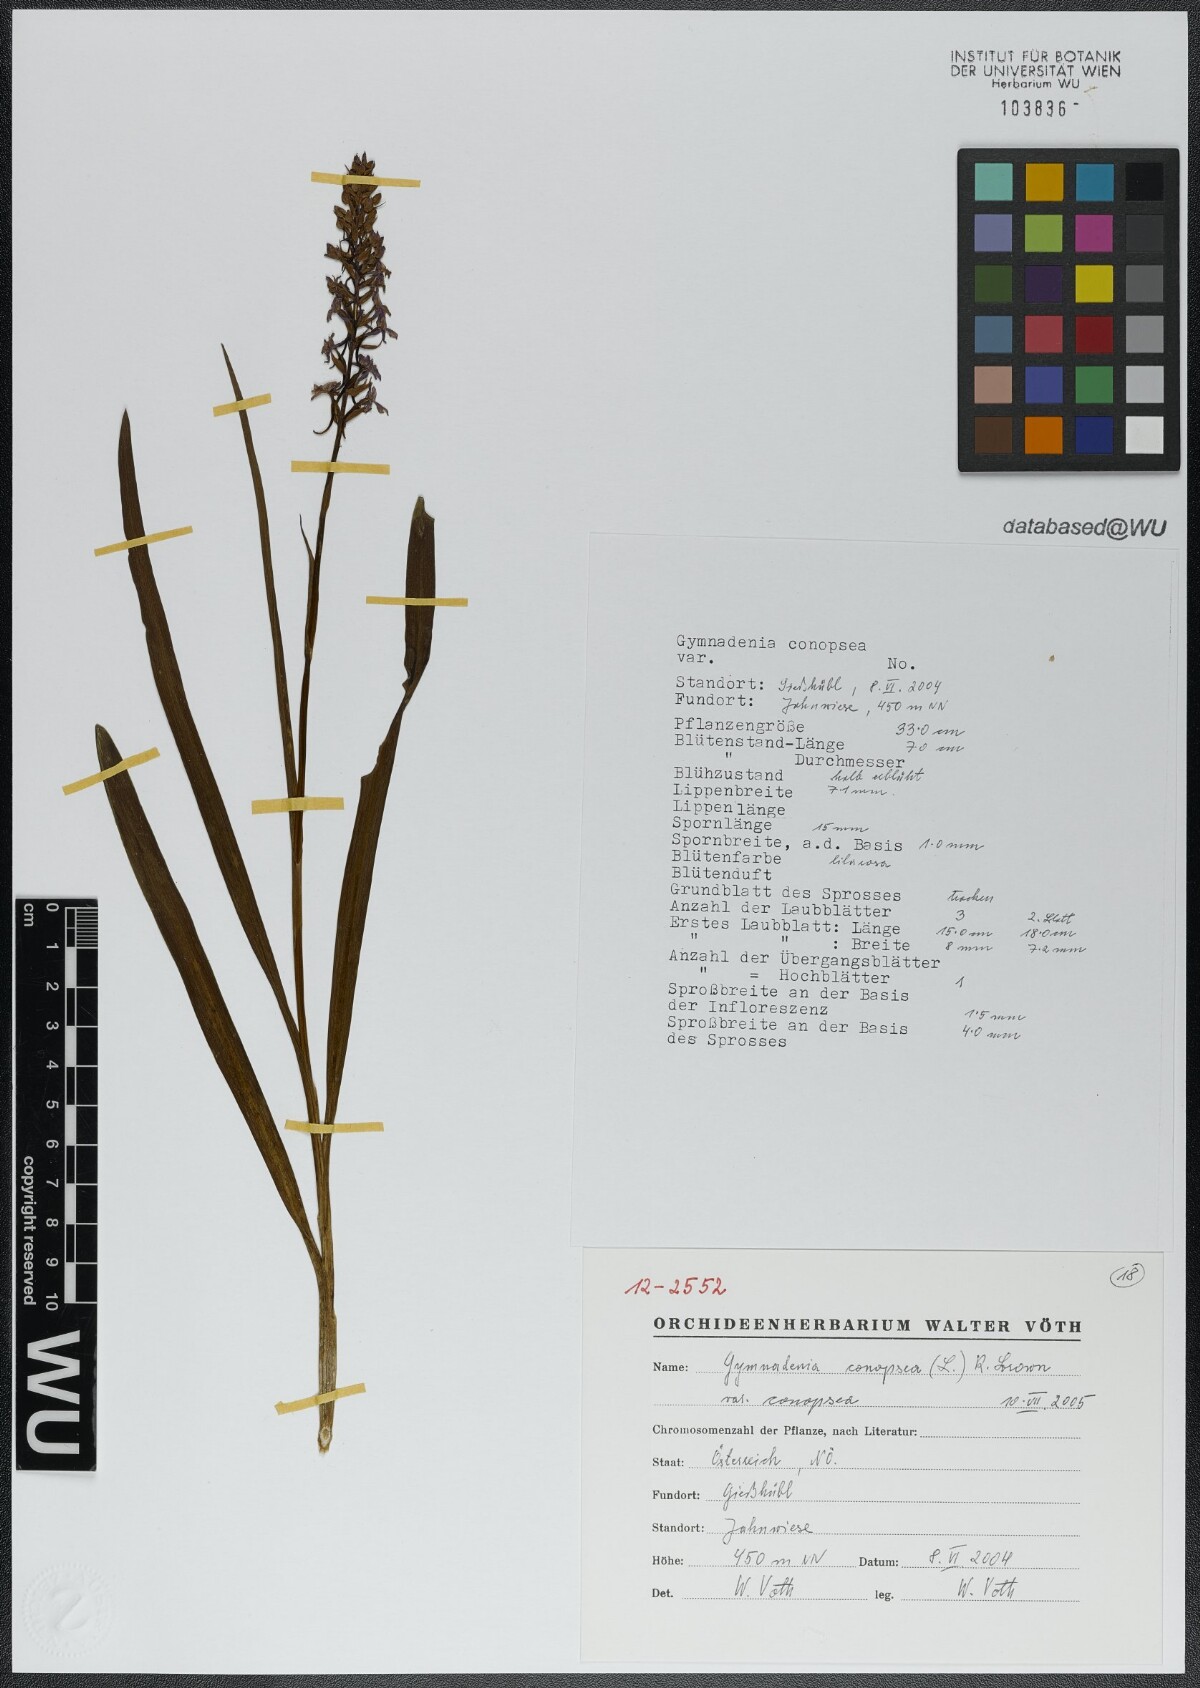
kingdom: Plantae
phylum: Tracheophyta
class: Liliopsida
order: Asparagales
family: Orchidaceae
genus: Gymnadenia
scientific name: Gymnadenia conopsea
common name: Fragrant orchid
